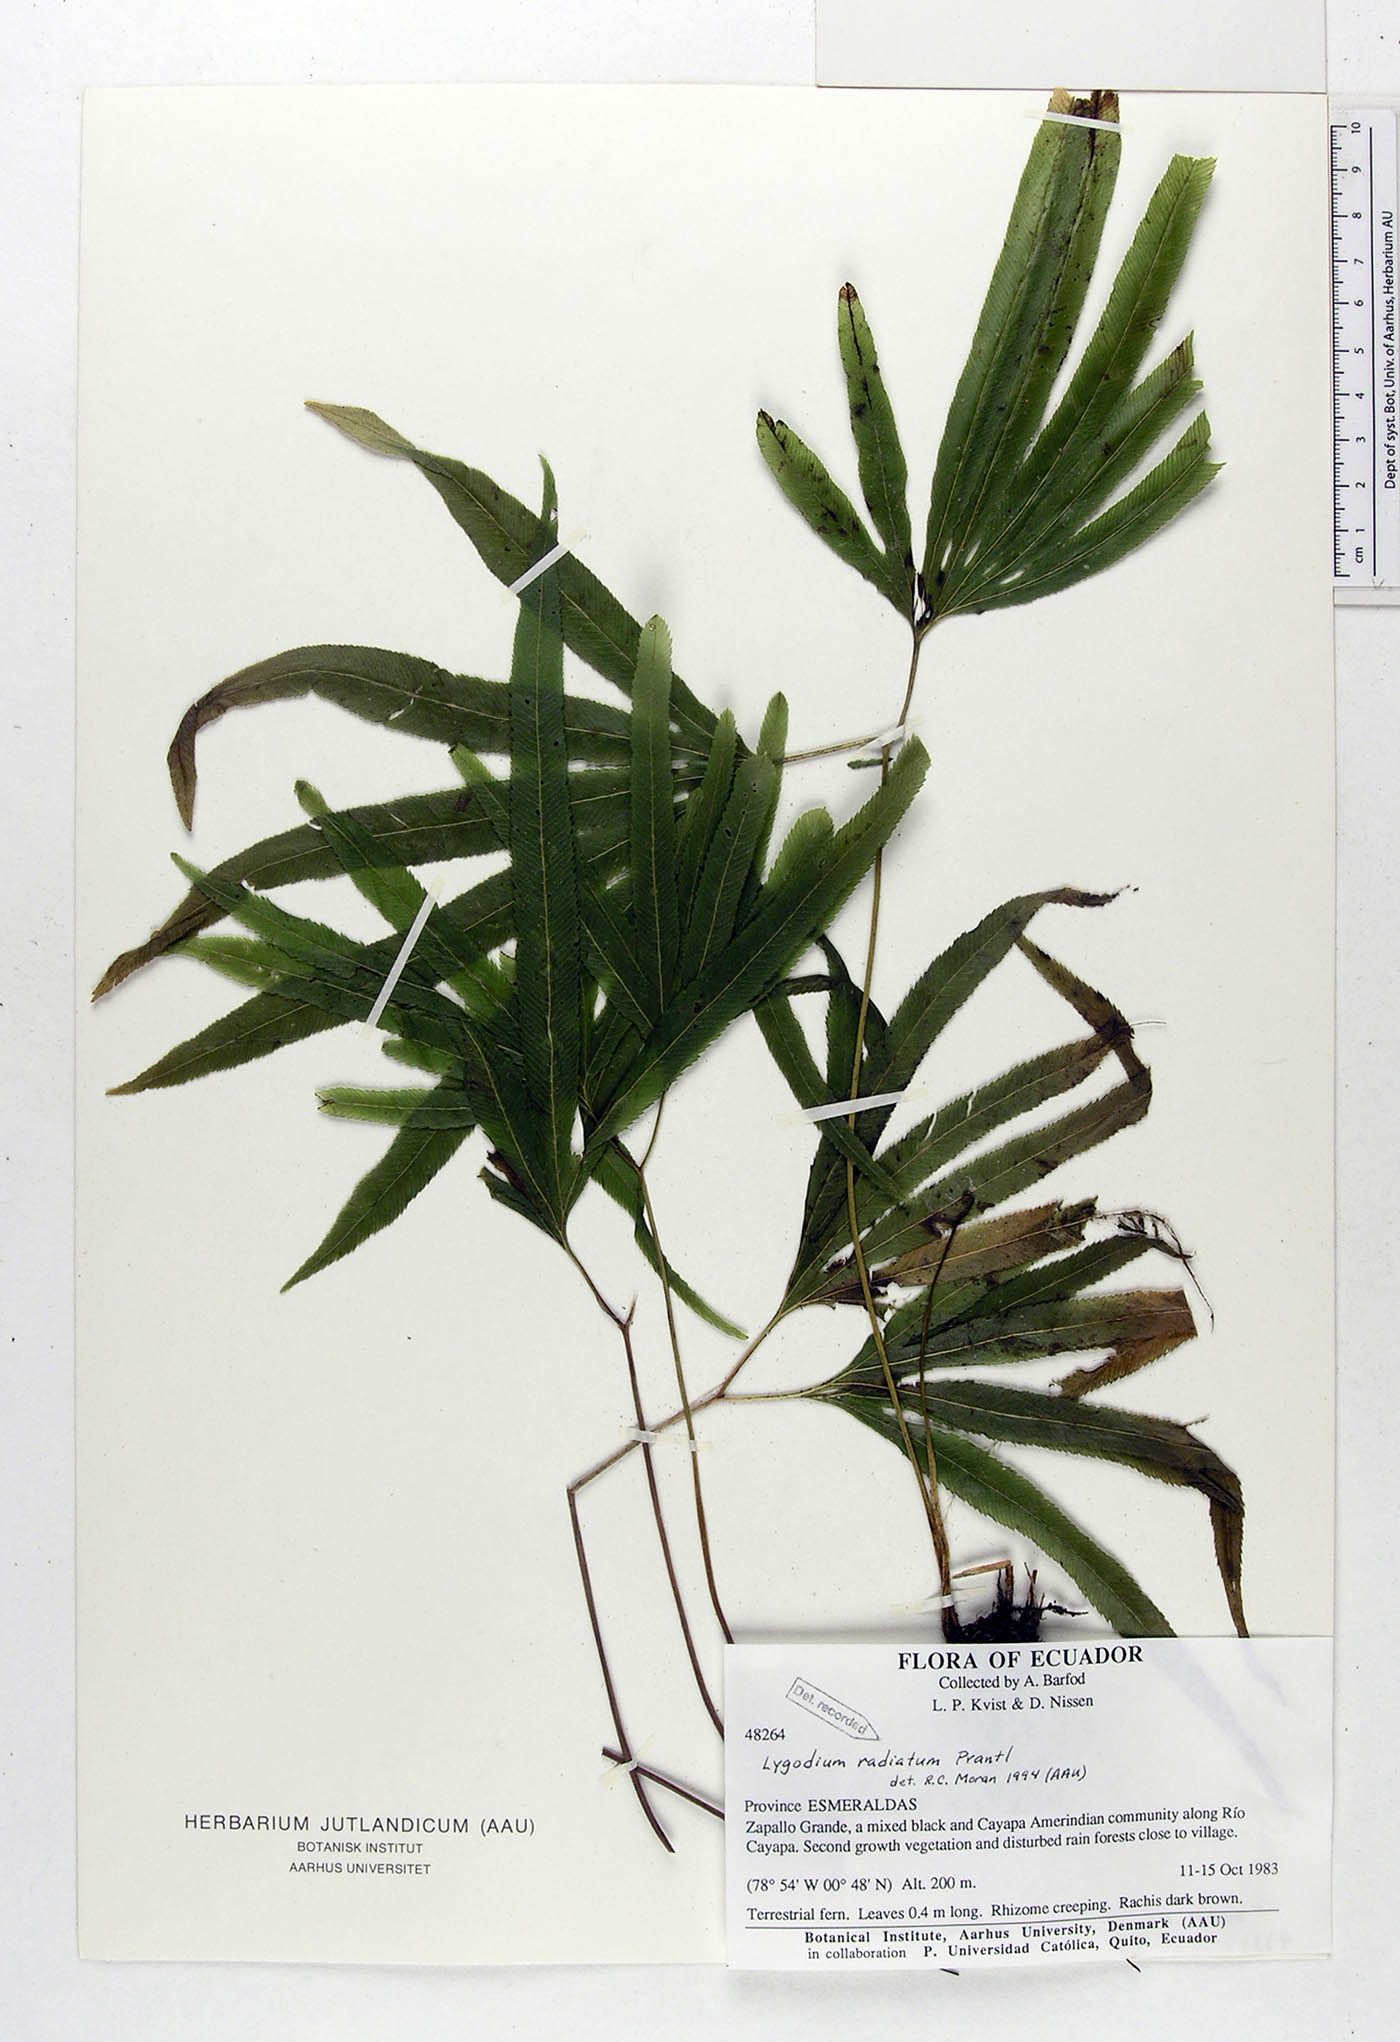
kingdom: Plantae
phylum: Tracheophyta
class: Polypodiopsida
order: Schizaeales
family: Schizaeaceae
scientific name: Schizaeaceae
